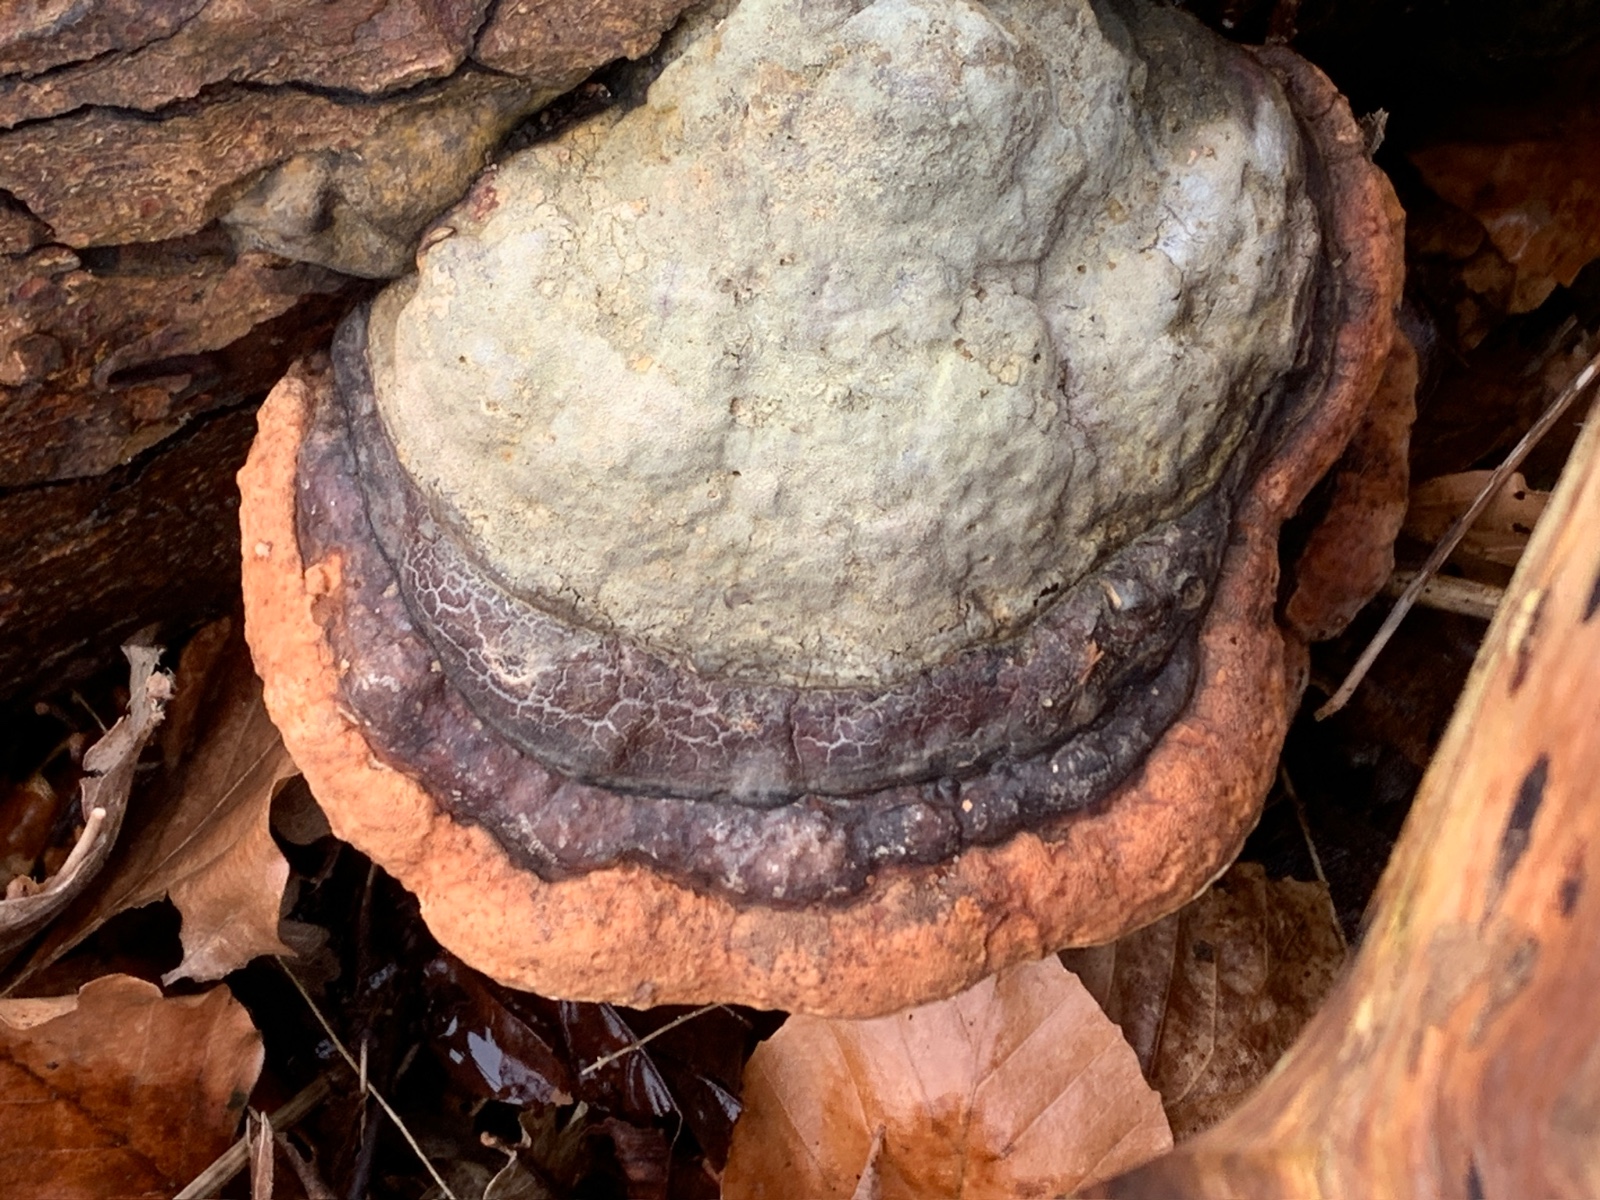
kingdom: Fungi
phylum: Basidiomycota
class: Agaricomycetes
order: Polyporales
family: Fomitopsidaceae
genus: Fomitopsis
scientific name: Fomitopsis pinicola
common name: randbæltet hovporesvamp
